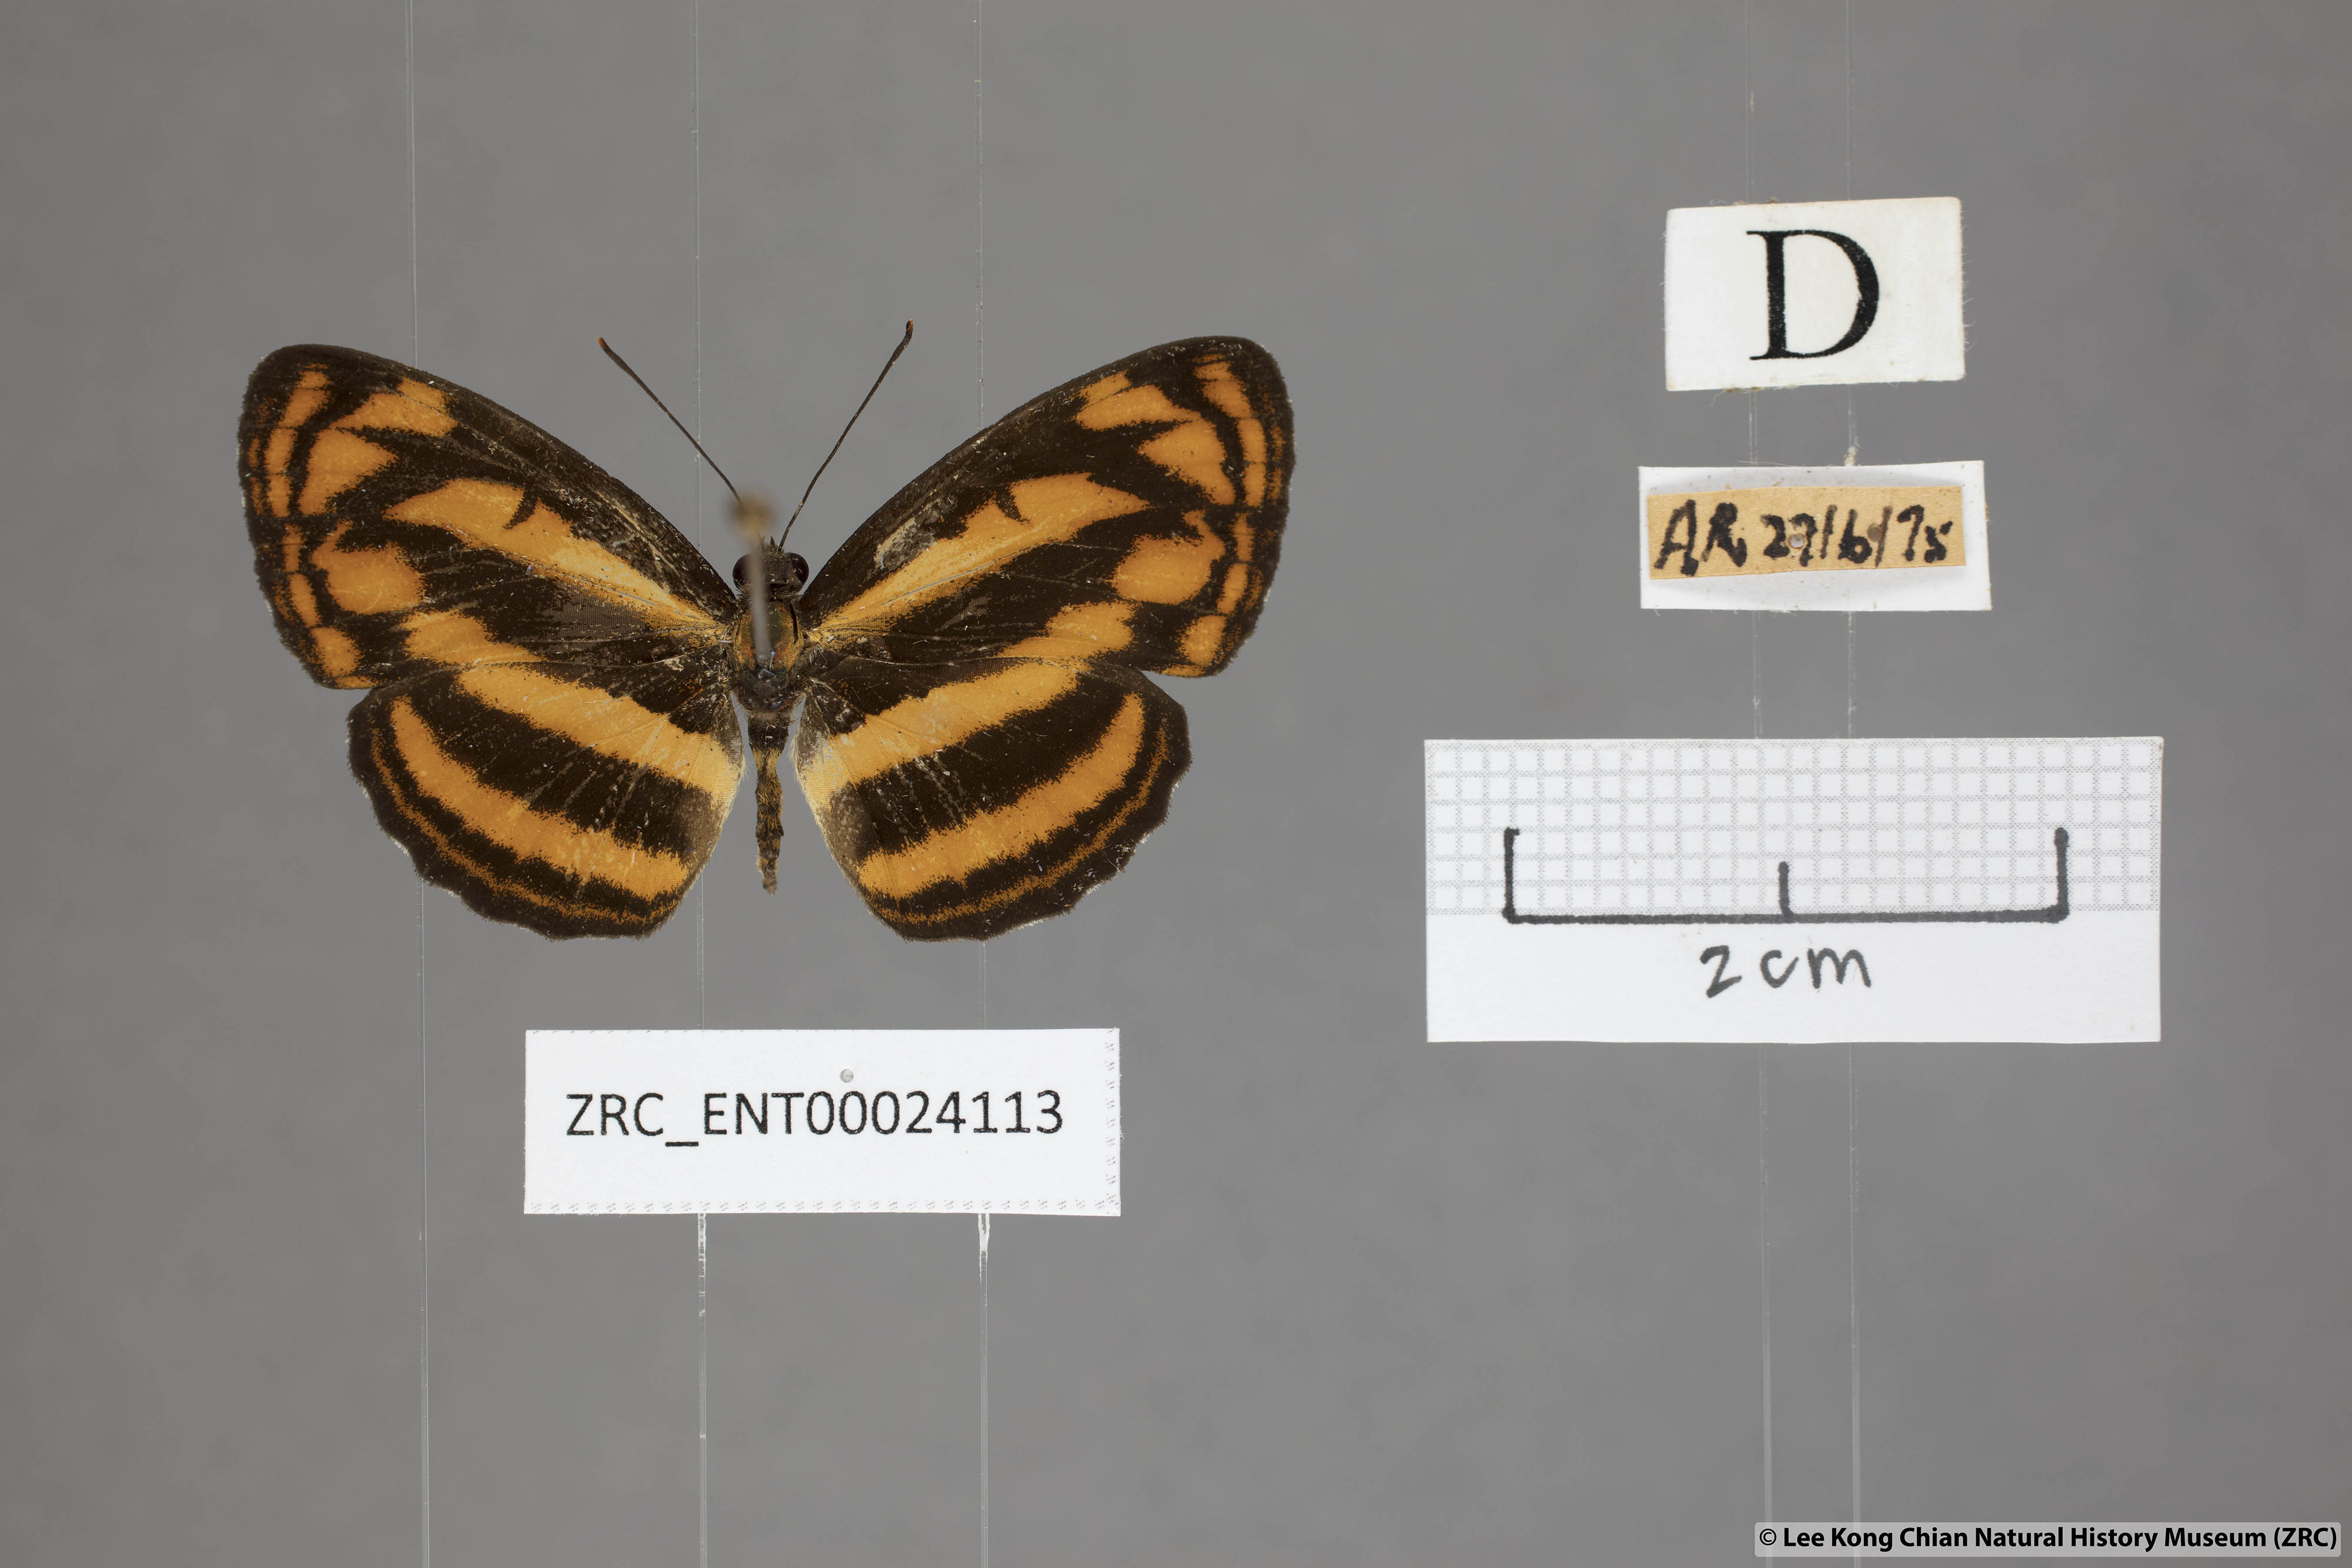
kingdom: Animalia
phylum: Arthropoda
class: Insecta
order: Lepidoptera
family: Nymphalidae
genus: Pantoporia
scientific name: Pantoporia aurelia
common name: Baby lascar
